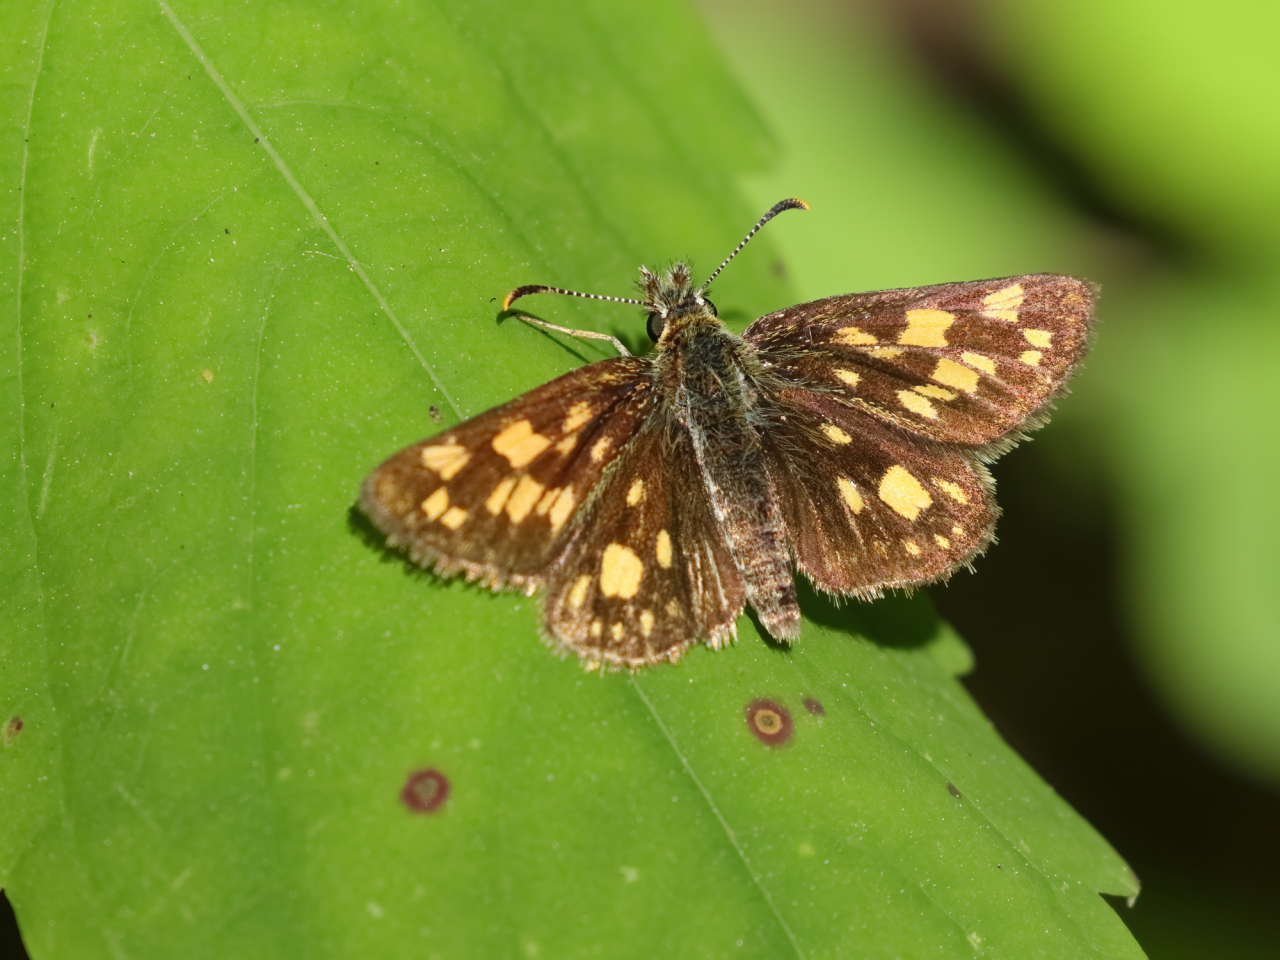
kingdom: Animalia
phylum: Arthropoda
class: Insecta
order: Lepidoptera
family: Hesperiidae
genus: Carterocephalus
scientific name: Carterocephalus palaemon
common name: Chequered Skipper
